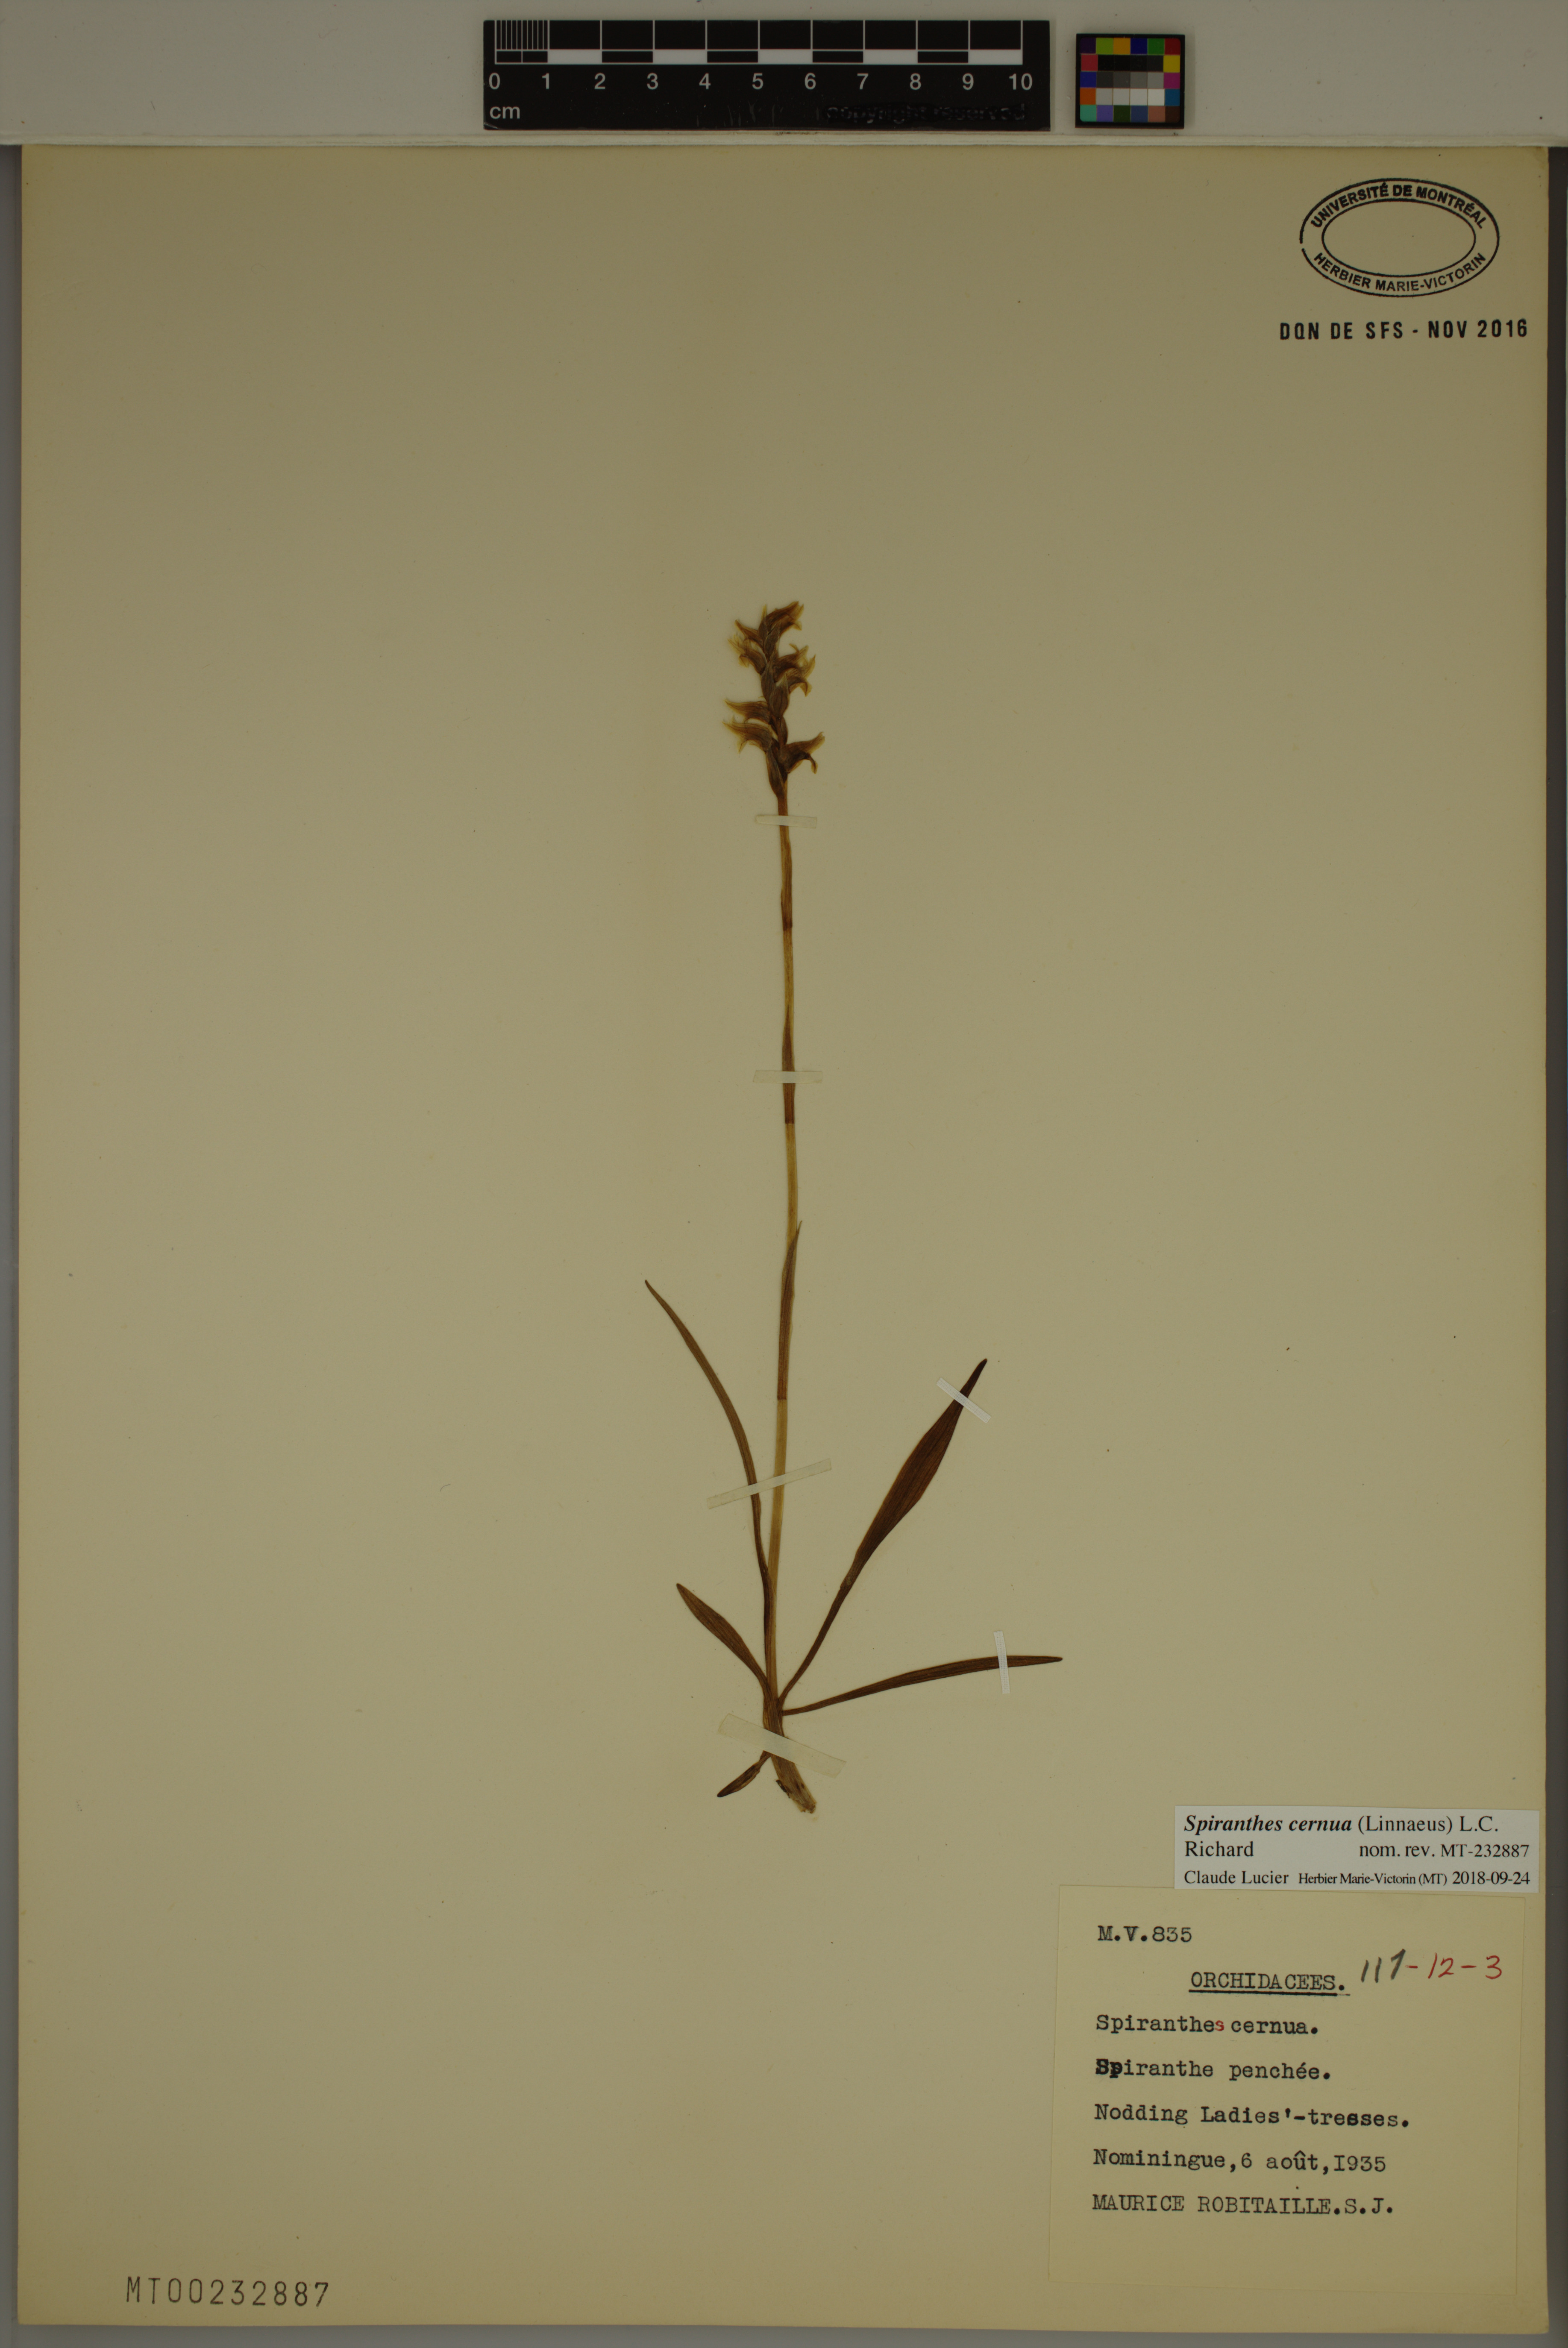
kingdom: Plantae
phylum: Tracheophyta
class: Liliopsida
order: Asparagales
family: Orchidaceae
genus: Spiranthes
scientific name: Spiranthes cernua
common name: Dropping ladies'-tresses
